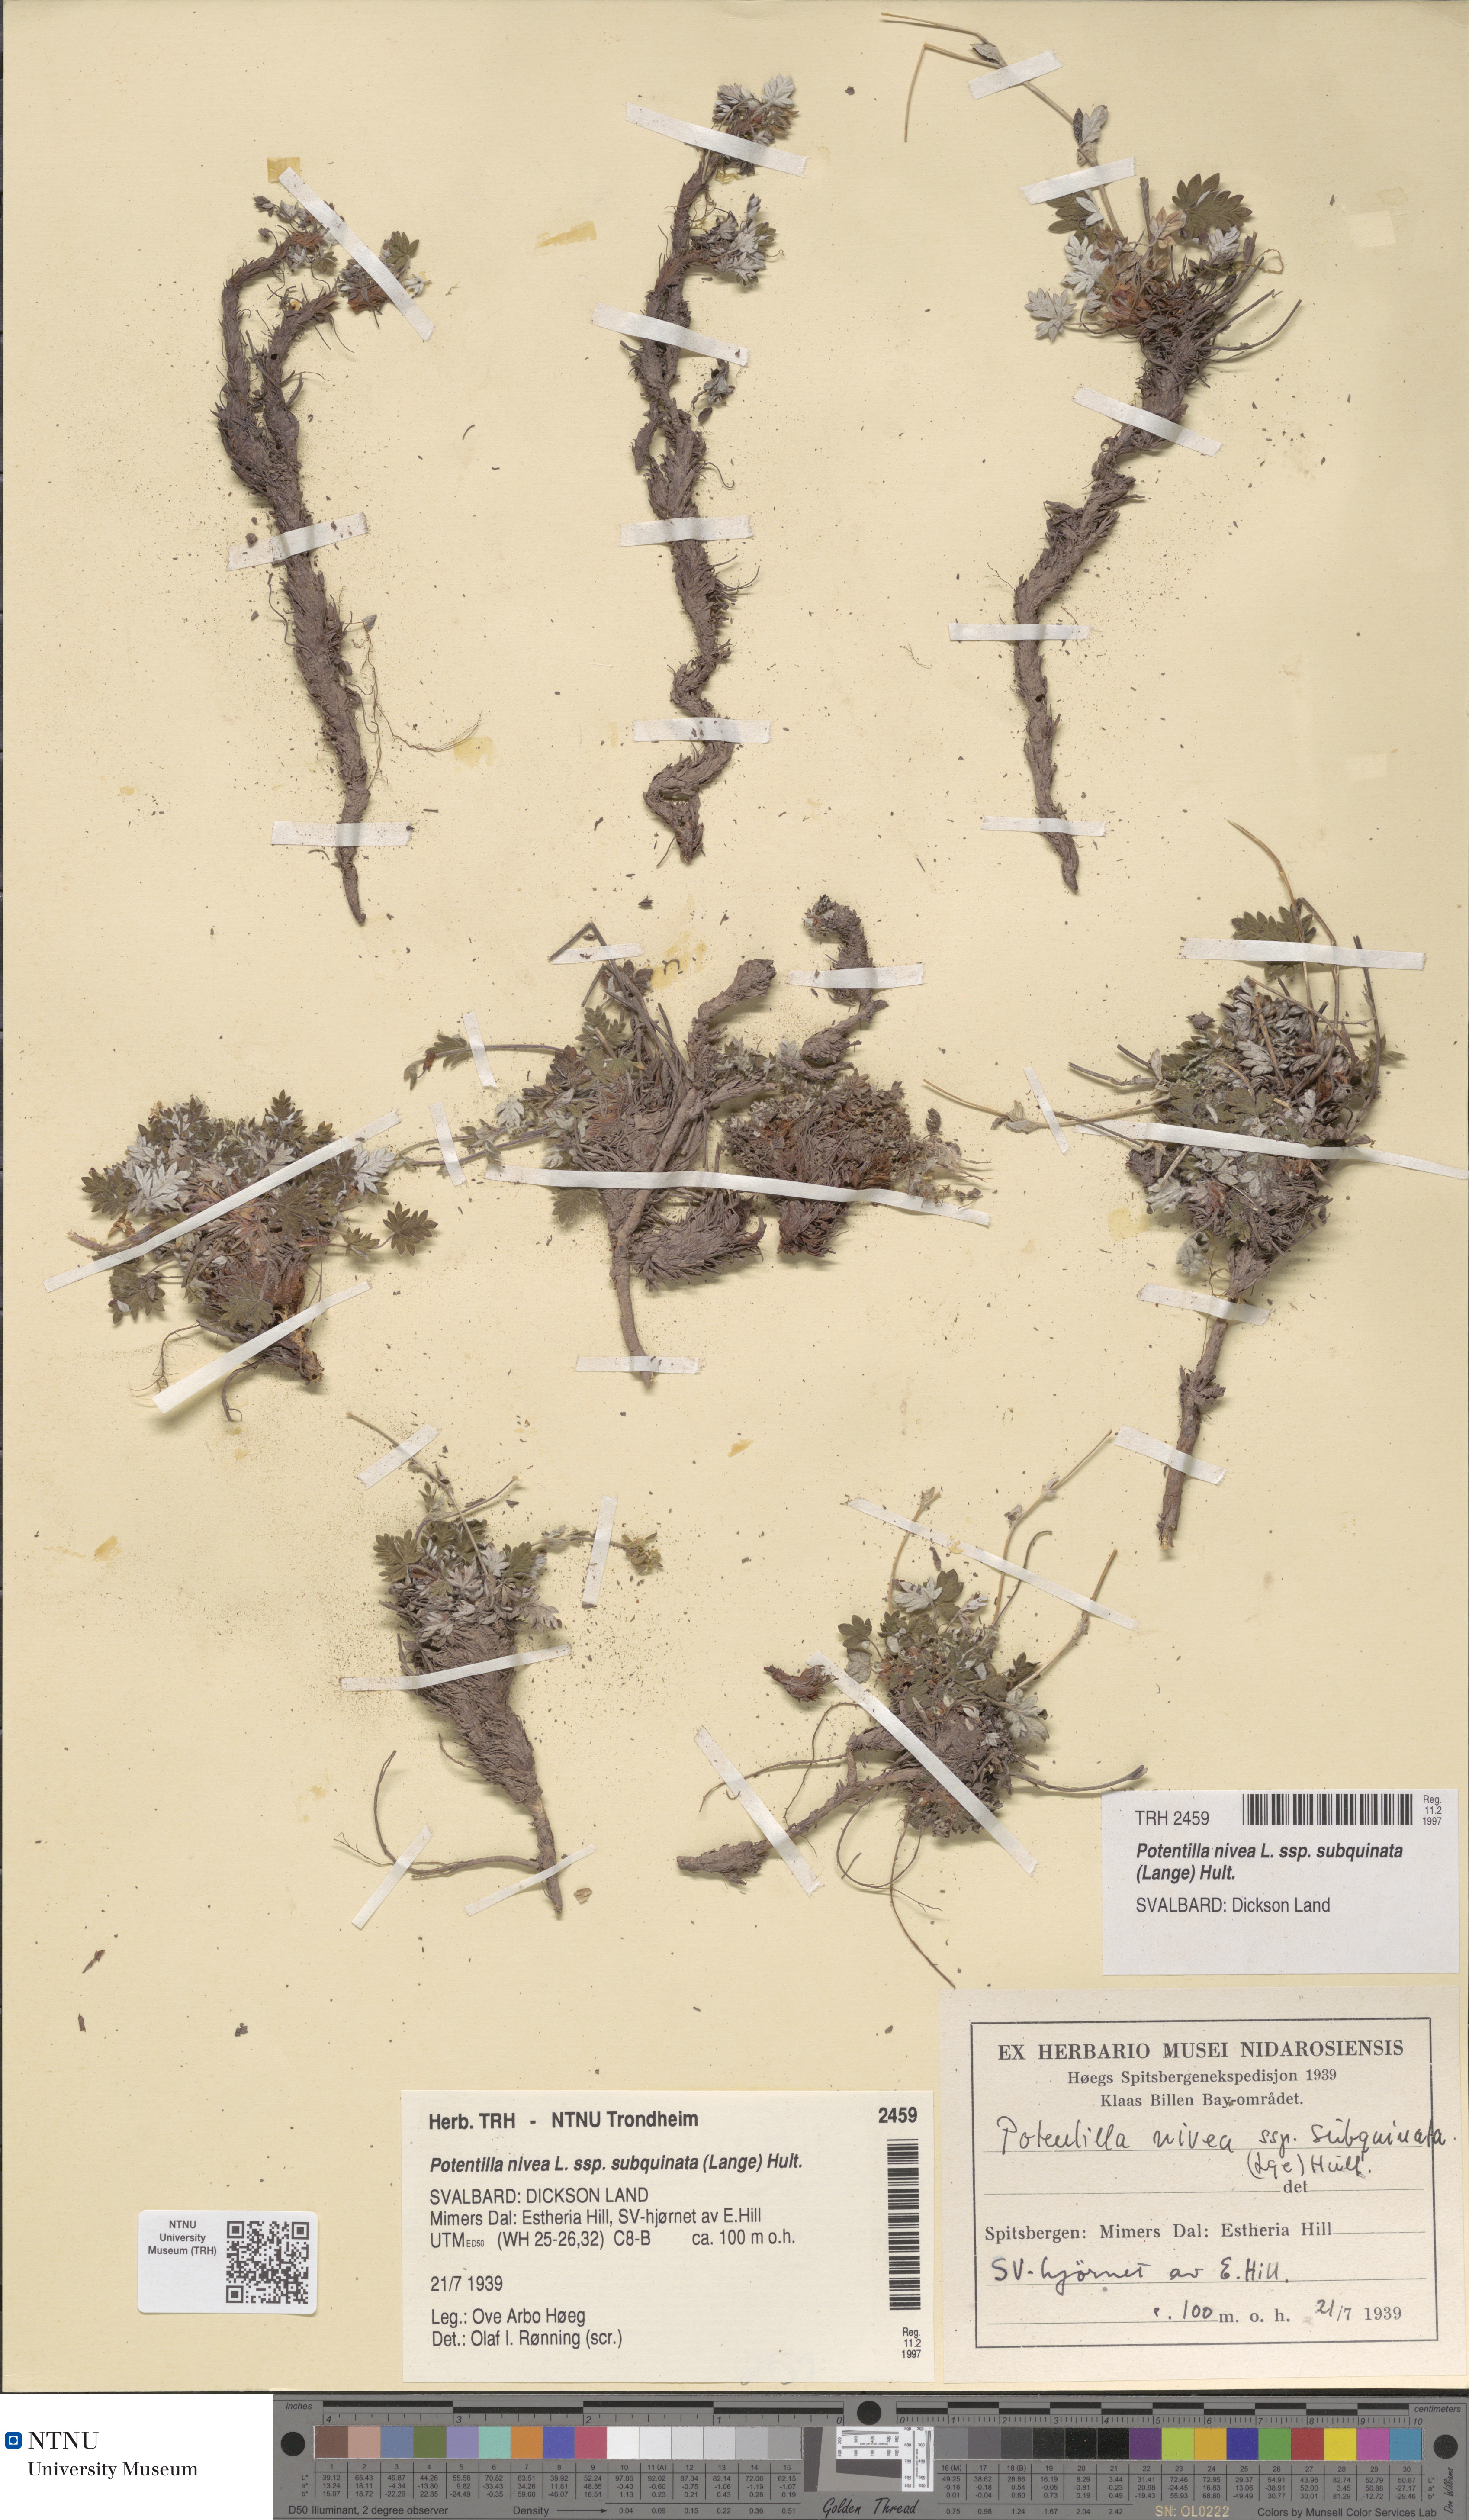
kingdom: Plantae
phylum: Tracheophyta
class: Magnoliopsida
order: Rosales
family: Rosaceae
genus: Potentilla
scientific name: Potentilla nivea
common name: Snow cinquefoil
